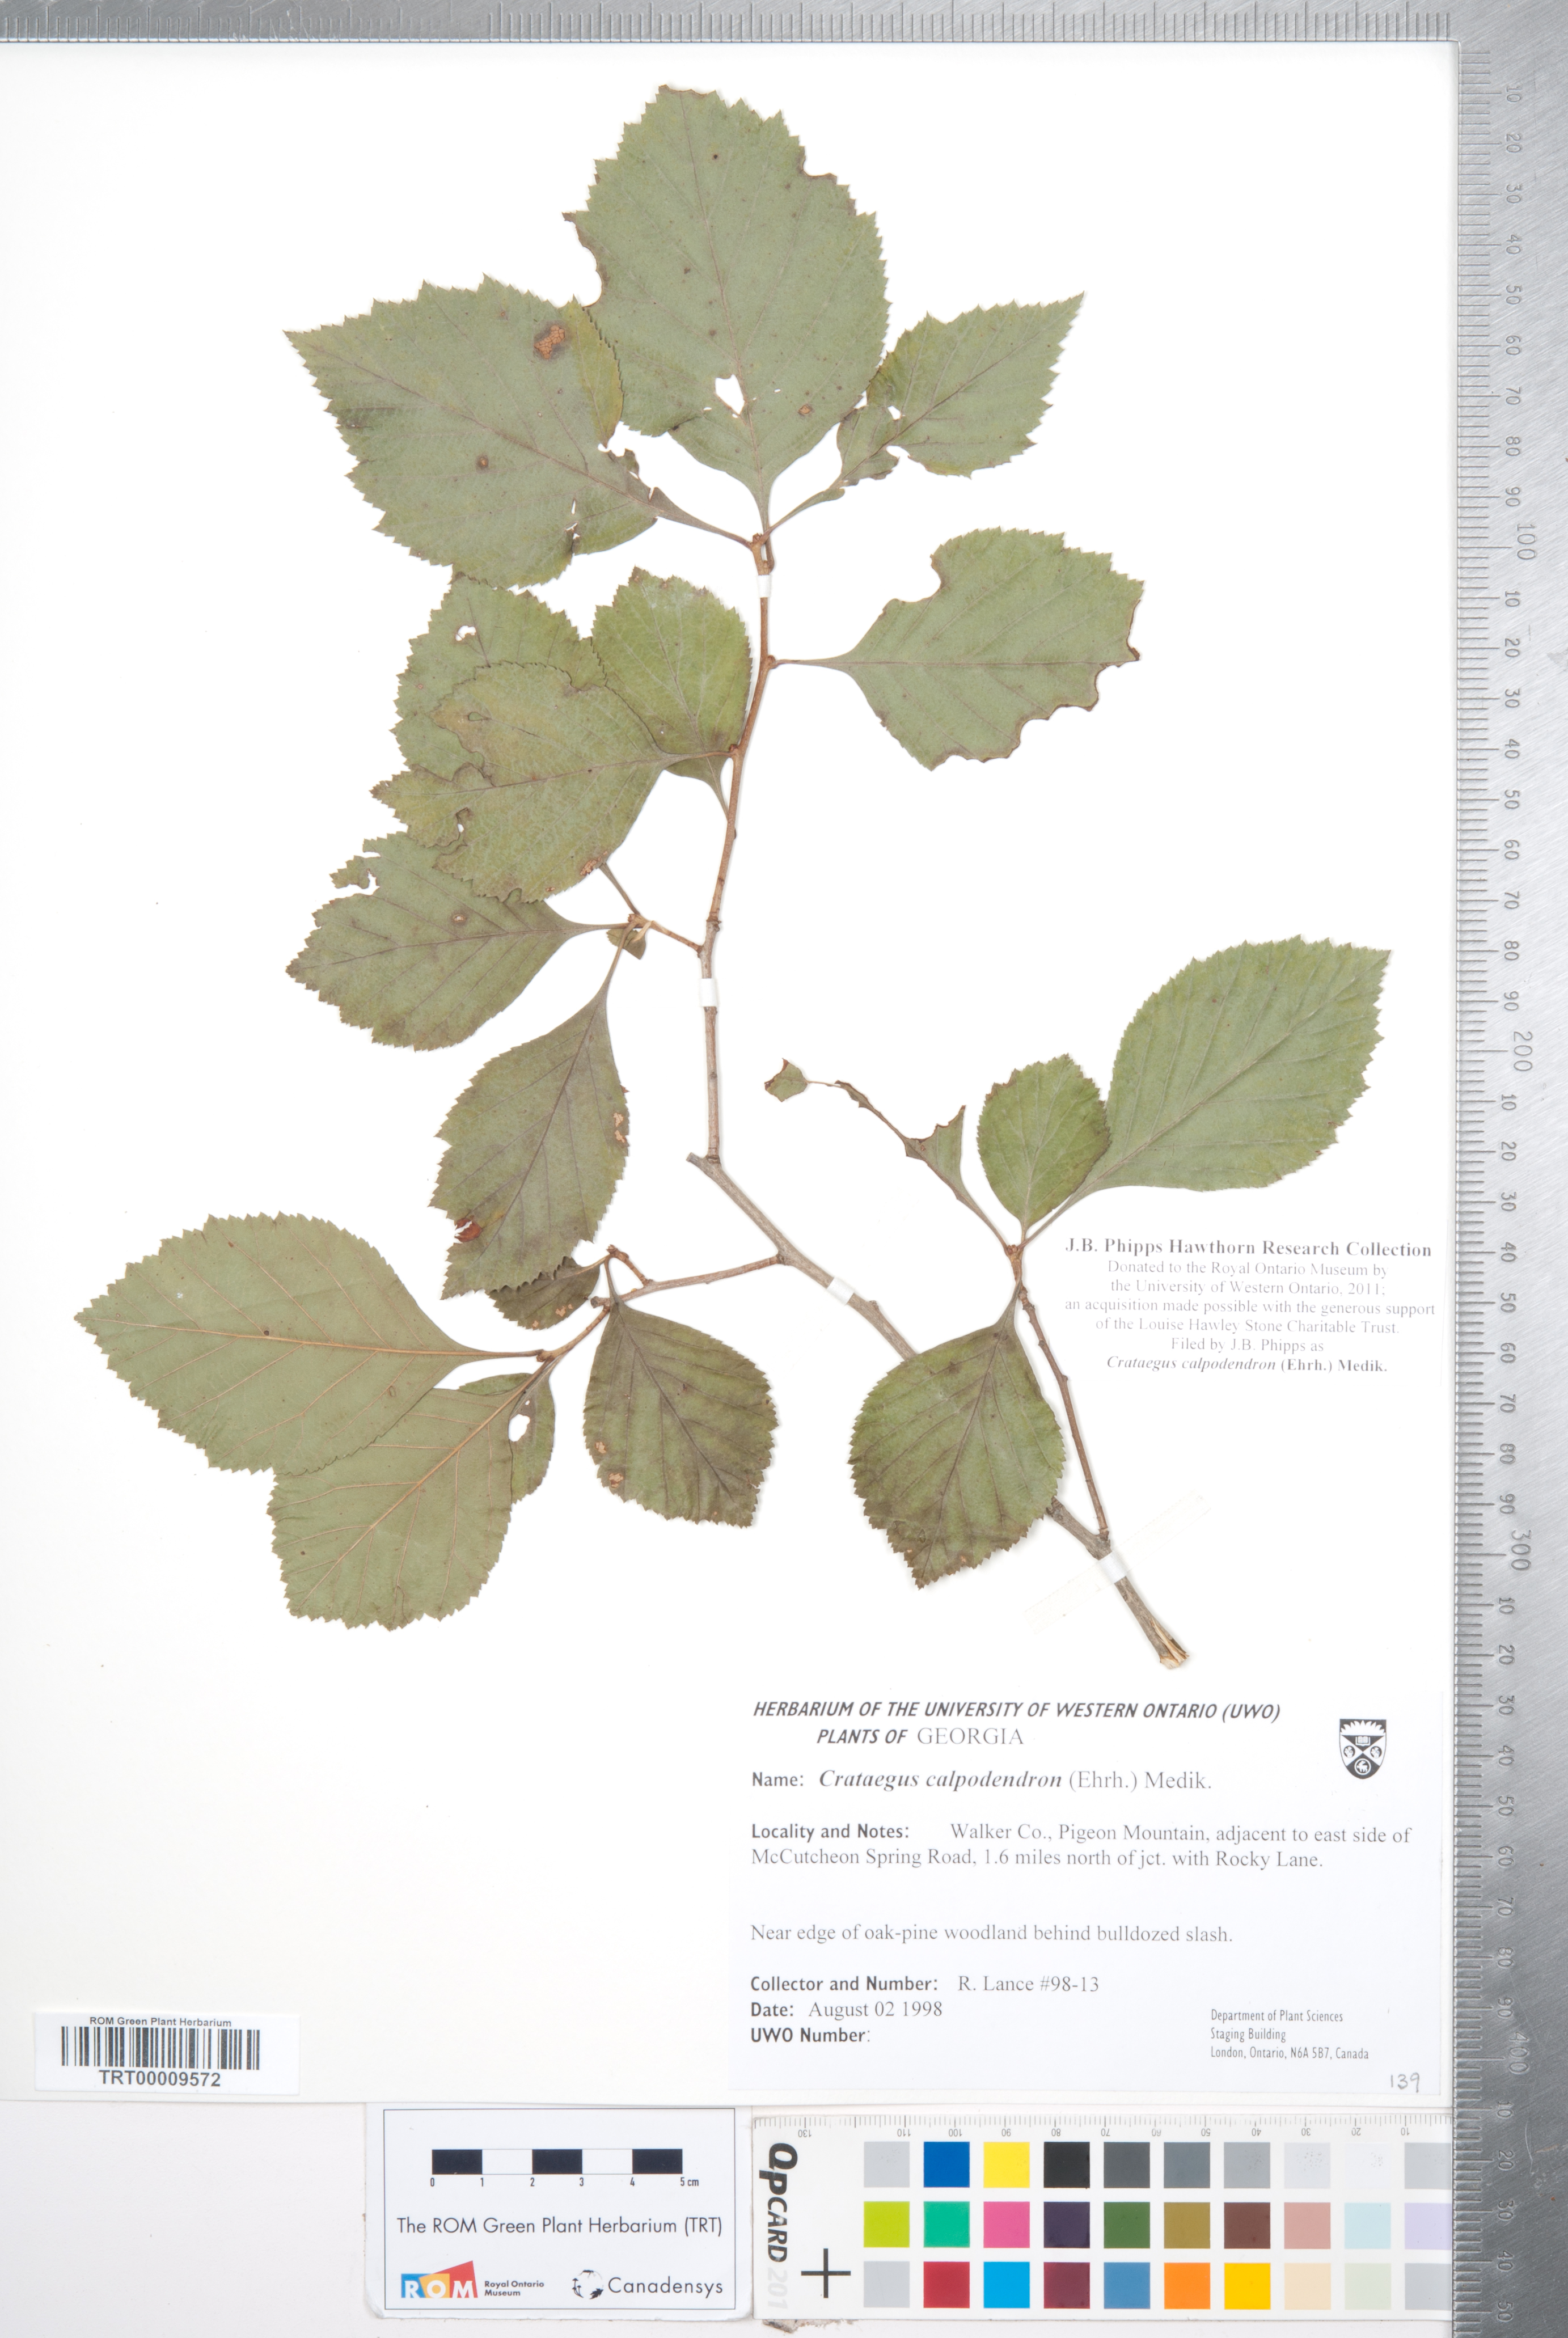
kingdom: Plantae
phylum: Tracheophyta
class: Magnoliopsida
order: Rosales
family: Rosaceae
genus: Crataegus
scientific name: Crataegus calpodendron
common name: Pear hawthorn
